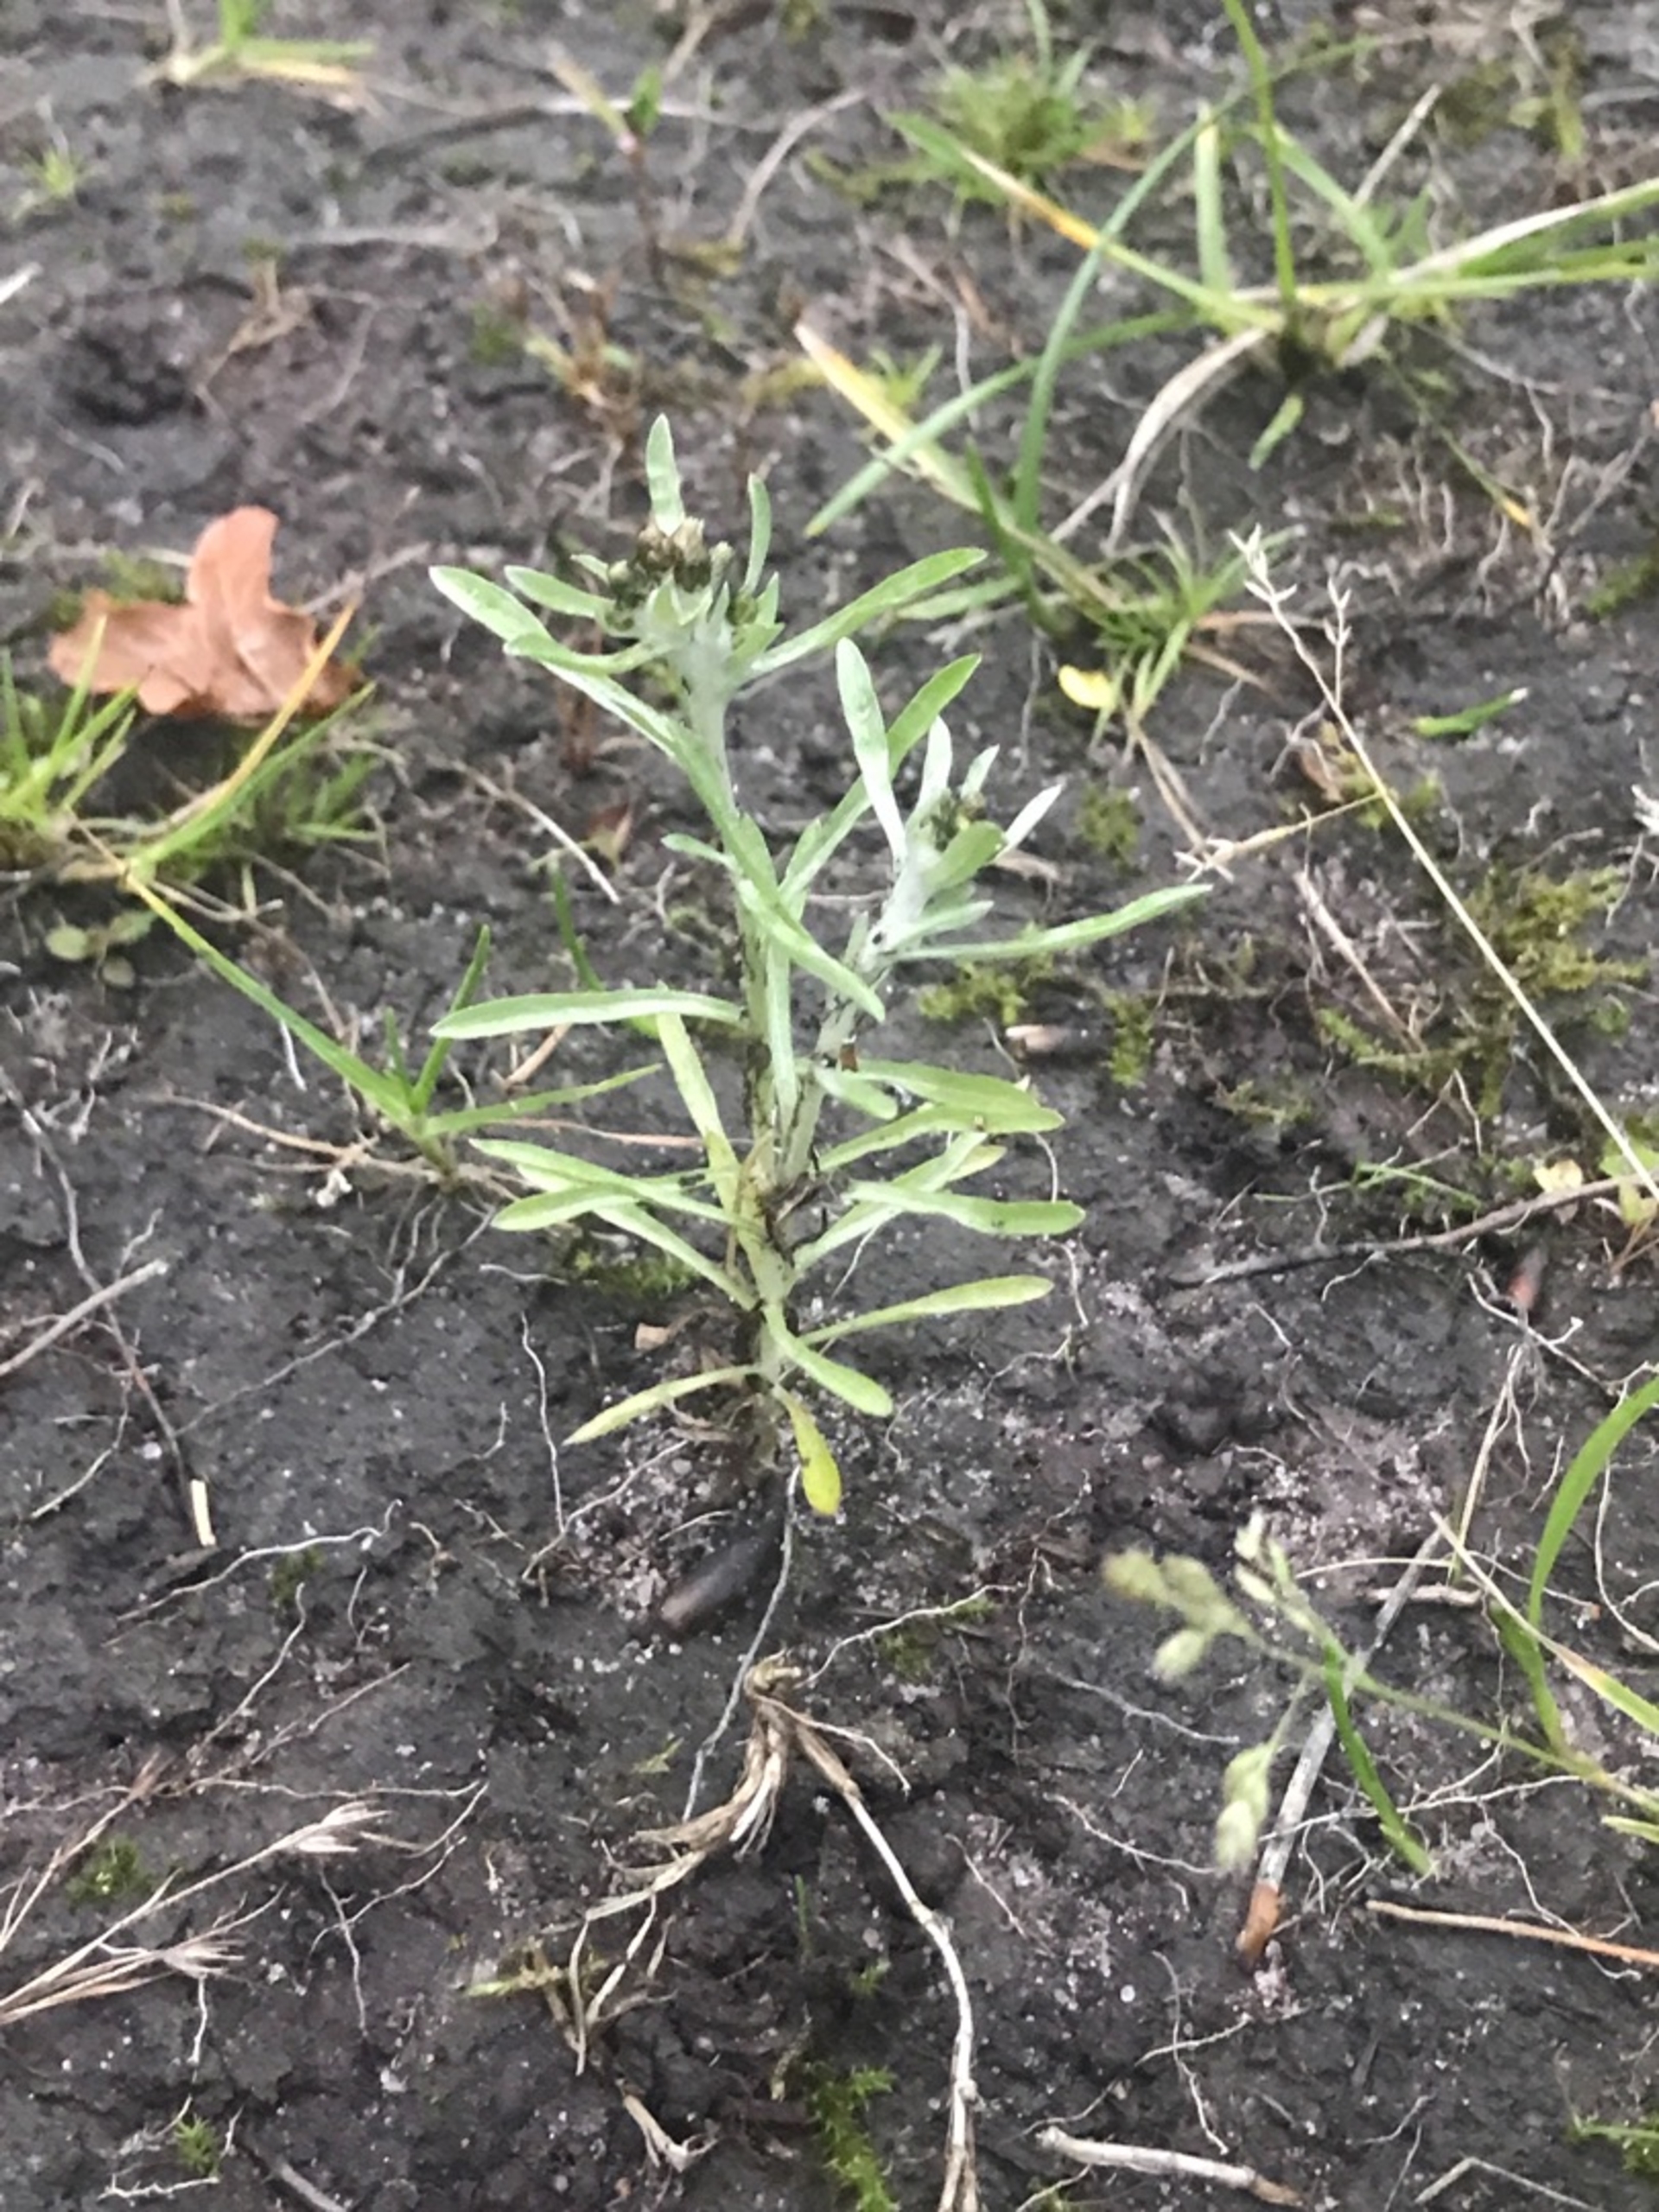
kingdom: Plantae
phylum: Tracheophyta
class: Magnoliopsida
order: Asterales
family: Asteraceae
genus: Gnaphalium
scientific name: Gnaphalium uliginosum
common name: Sump-evighedsblomst
